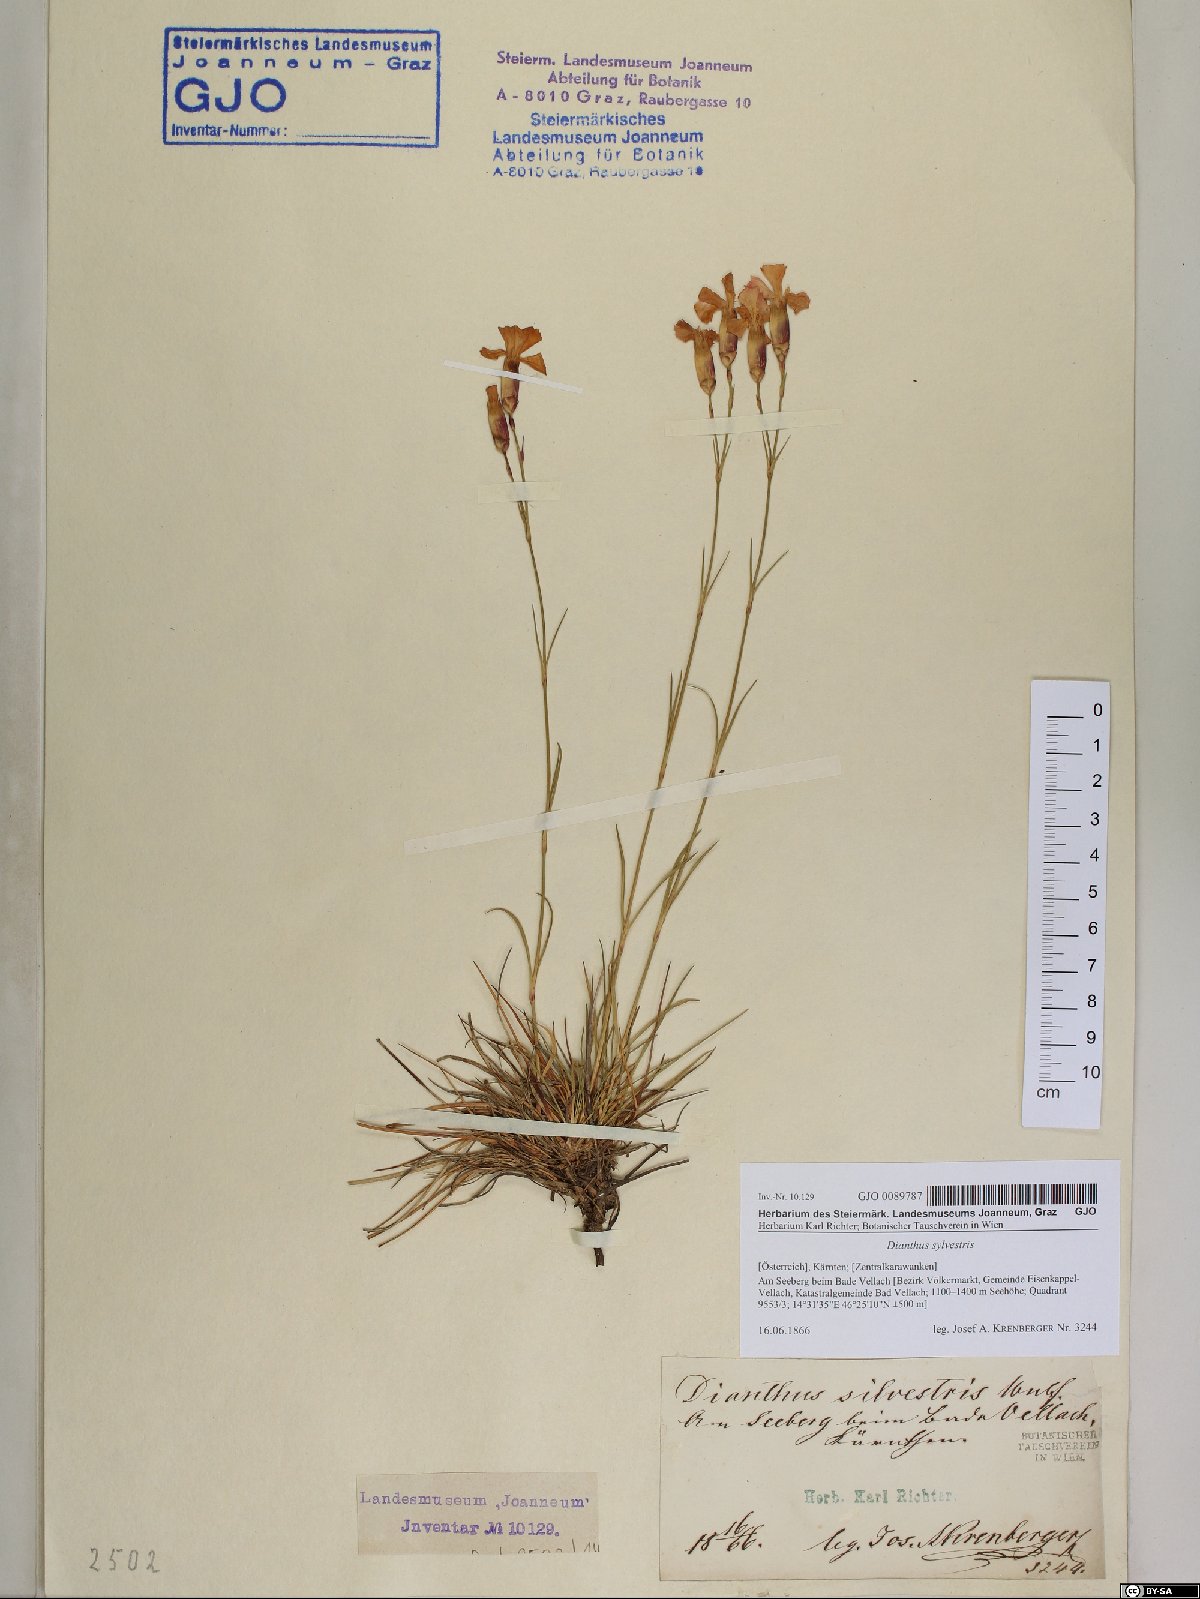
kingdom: Plantae
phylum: Tracheophyta
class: Magnoliopsida
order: Caryophyllales
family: Caryophyllaceae
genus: Dianthus
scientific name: Dianthus sylvestris
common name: Wood pink
